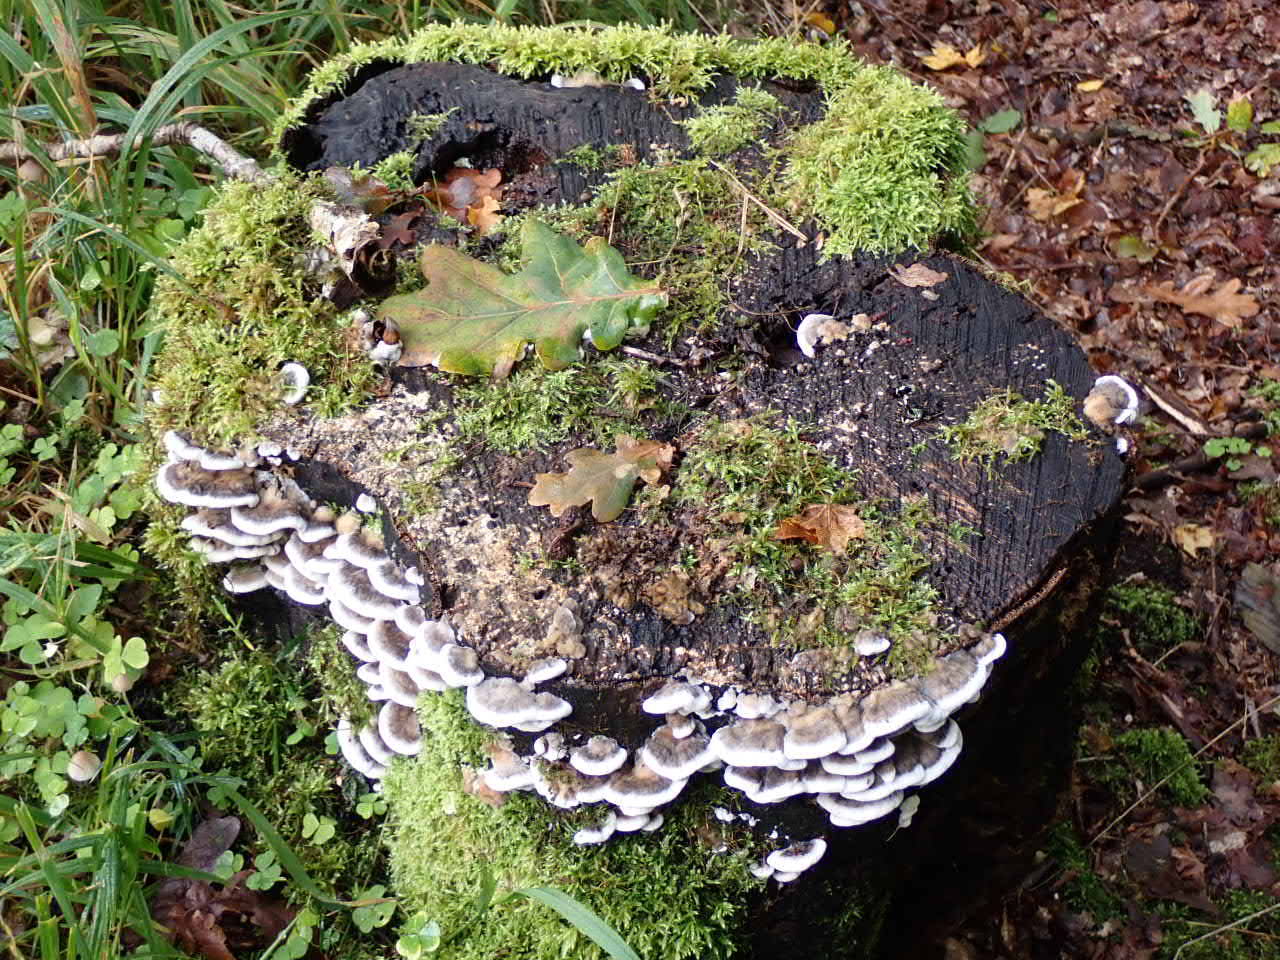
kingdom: Fungi
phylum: Basidiomycota
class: Agaricomycetes
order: Polyporales
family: Phanerochaetaceae
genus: Bjerkandera
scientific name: Bjerkandera adusta
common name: sveden sodporesvamp
